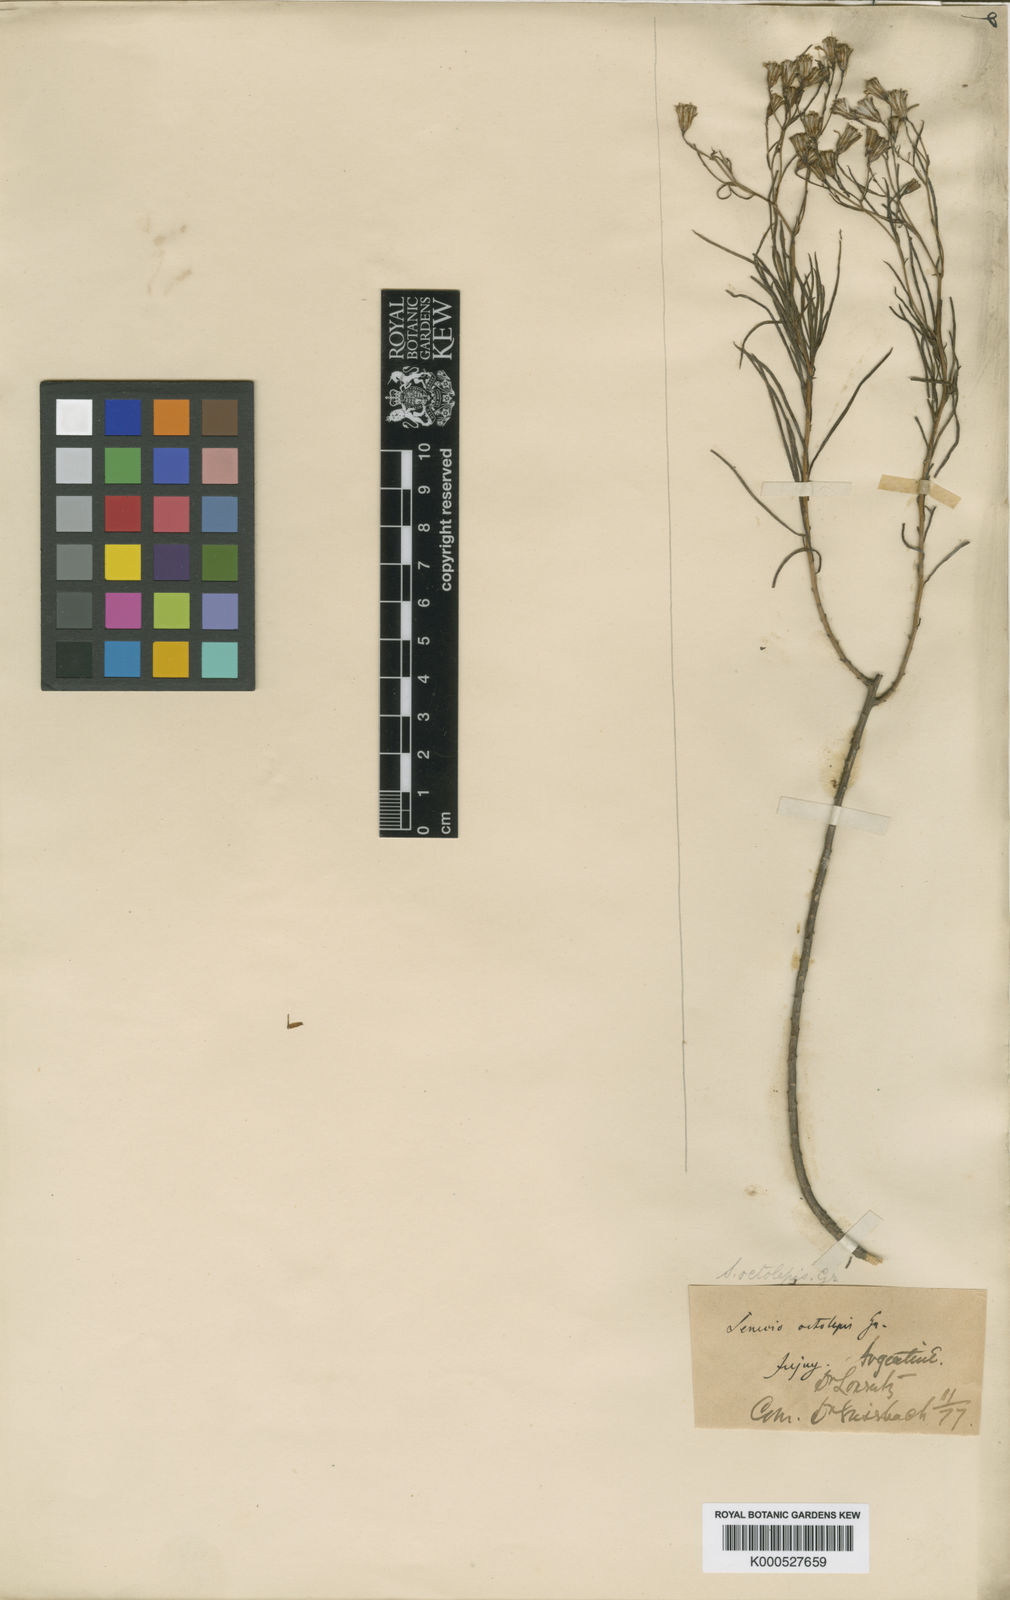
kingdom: Plantae
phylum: Tracheophyta
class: Magnoliopsida
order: Asterales
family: Asteraceae
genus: Senecio
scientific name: Senecio octolepis
